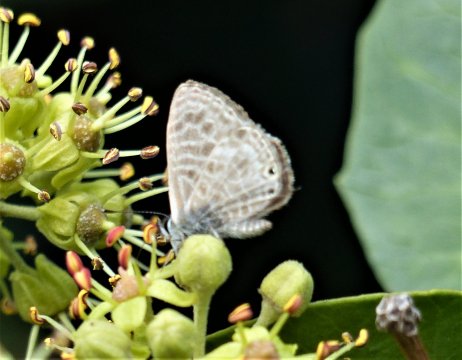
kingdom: Animalia
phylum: Arthropoda
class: Insecta
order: Lepidoptera
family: Lycaenidae
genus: Leptotes
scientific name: Leptotes pirithous
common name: Lang's Short-tailed Blue
